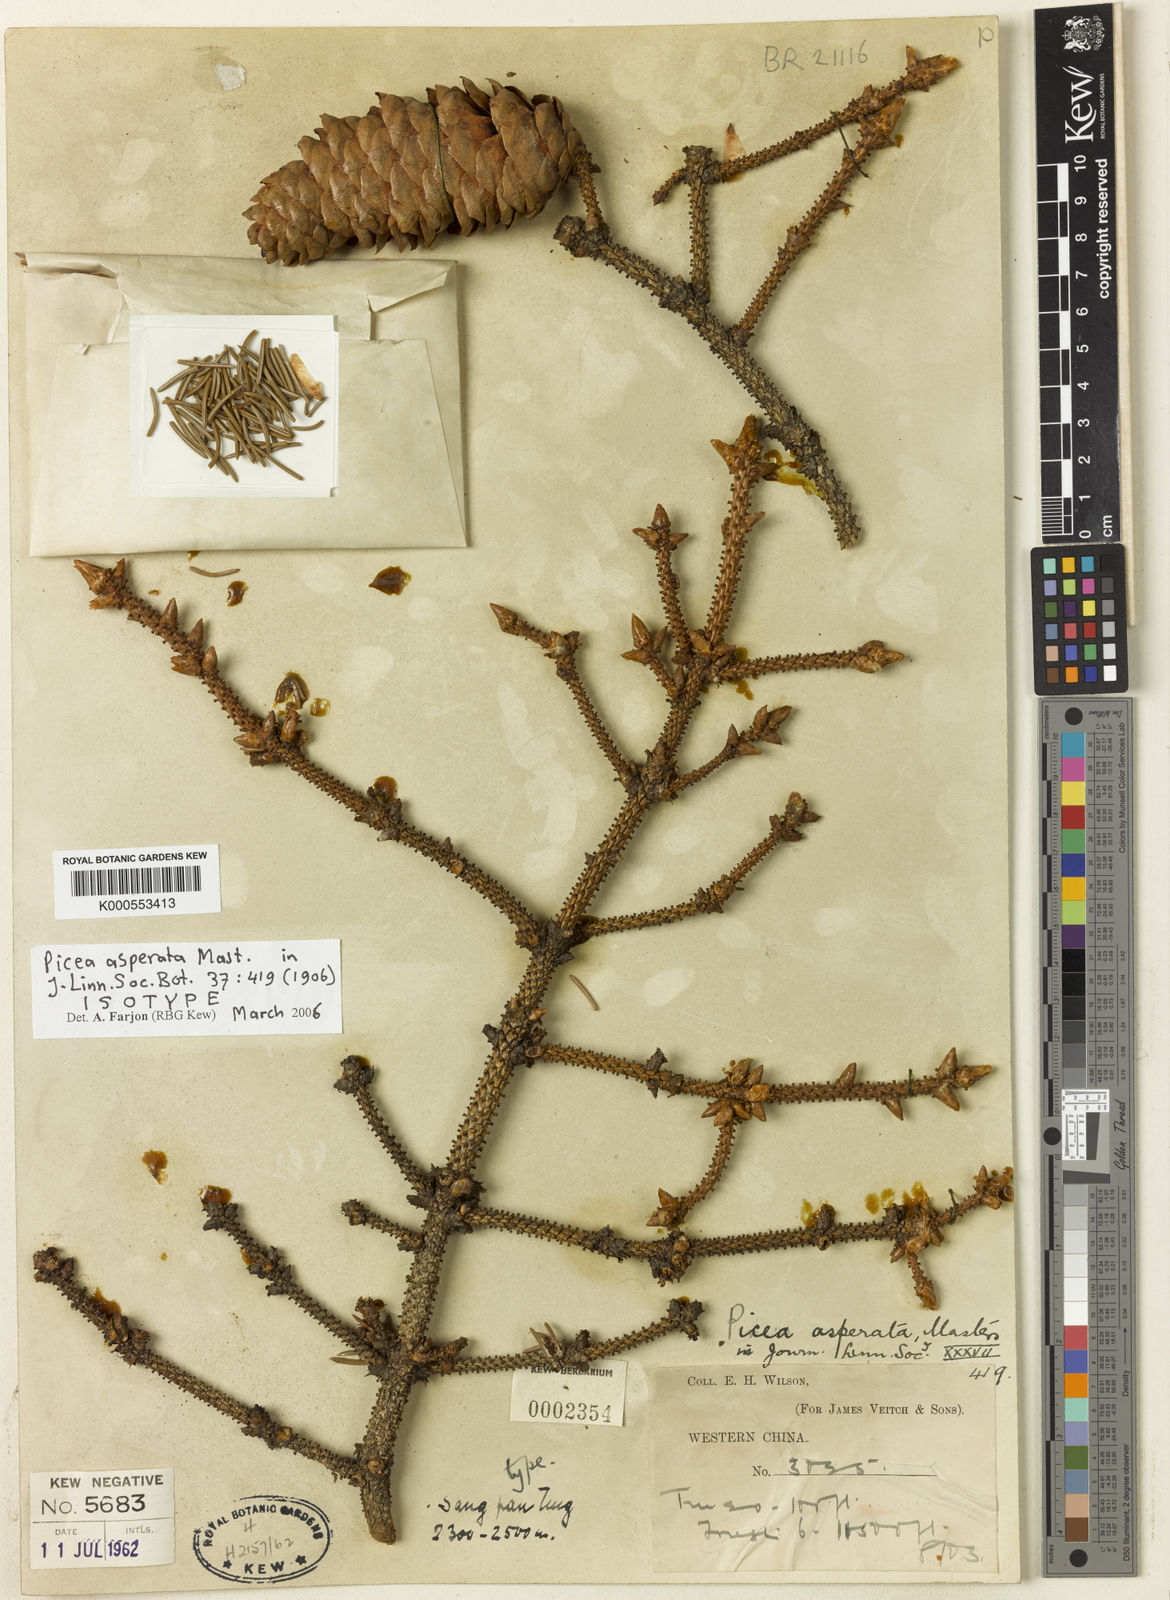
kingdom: Plantae
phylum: Tracheophyta
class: Pinopsida
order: Pinales
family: Pinaceae
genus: Picea
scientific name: Picea asperata
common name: Dragon spruce
